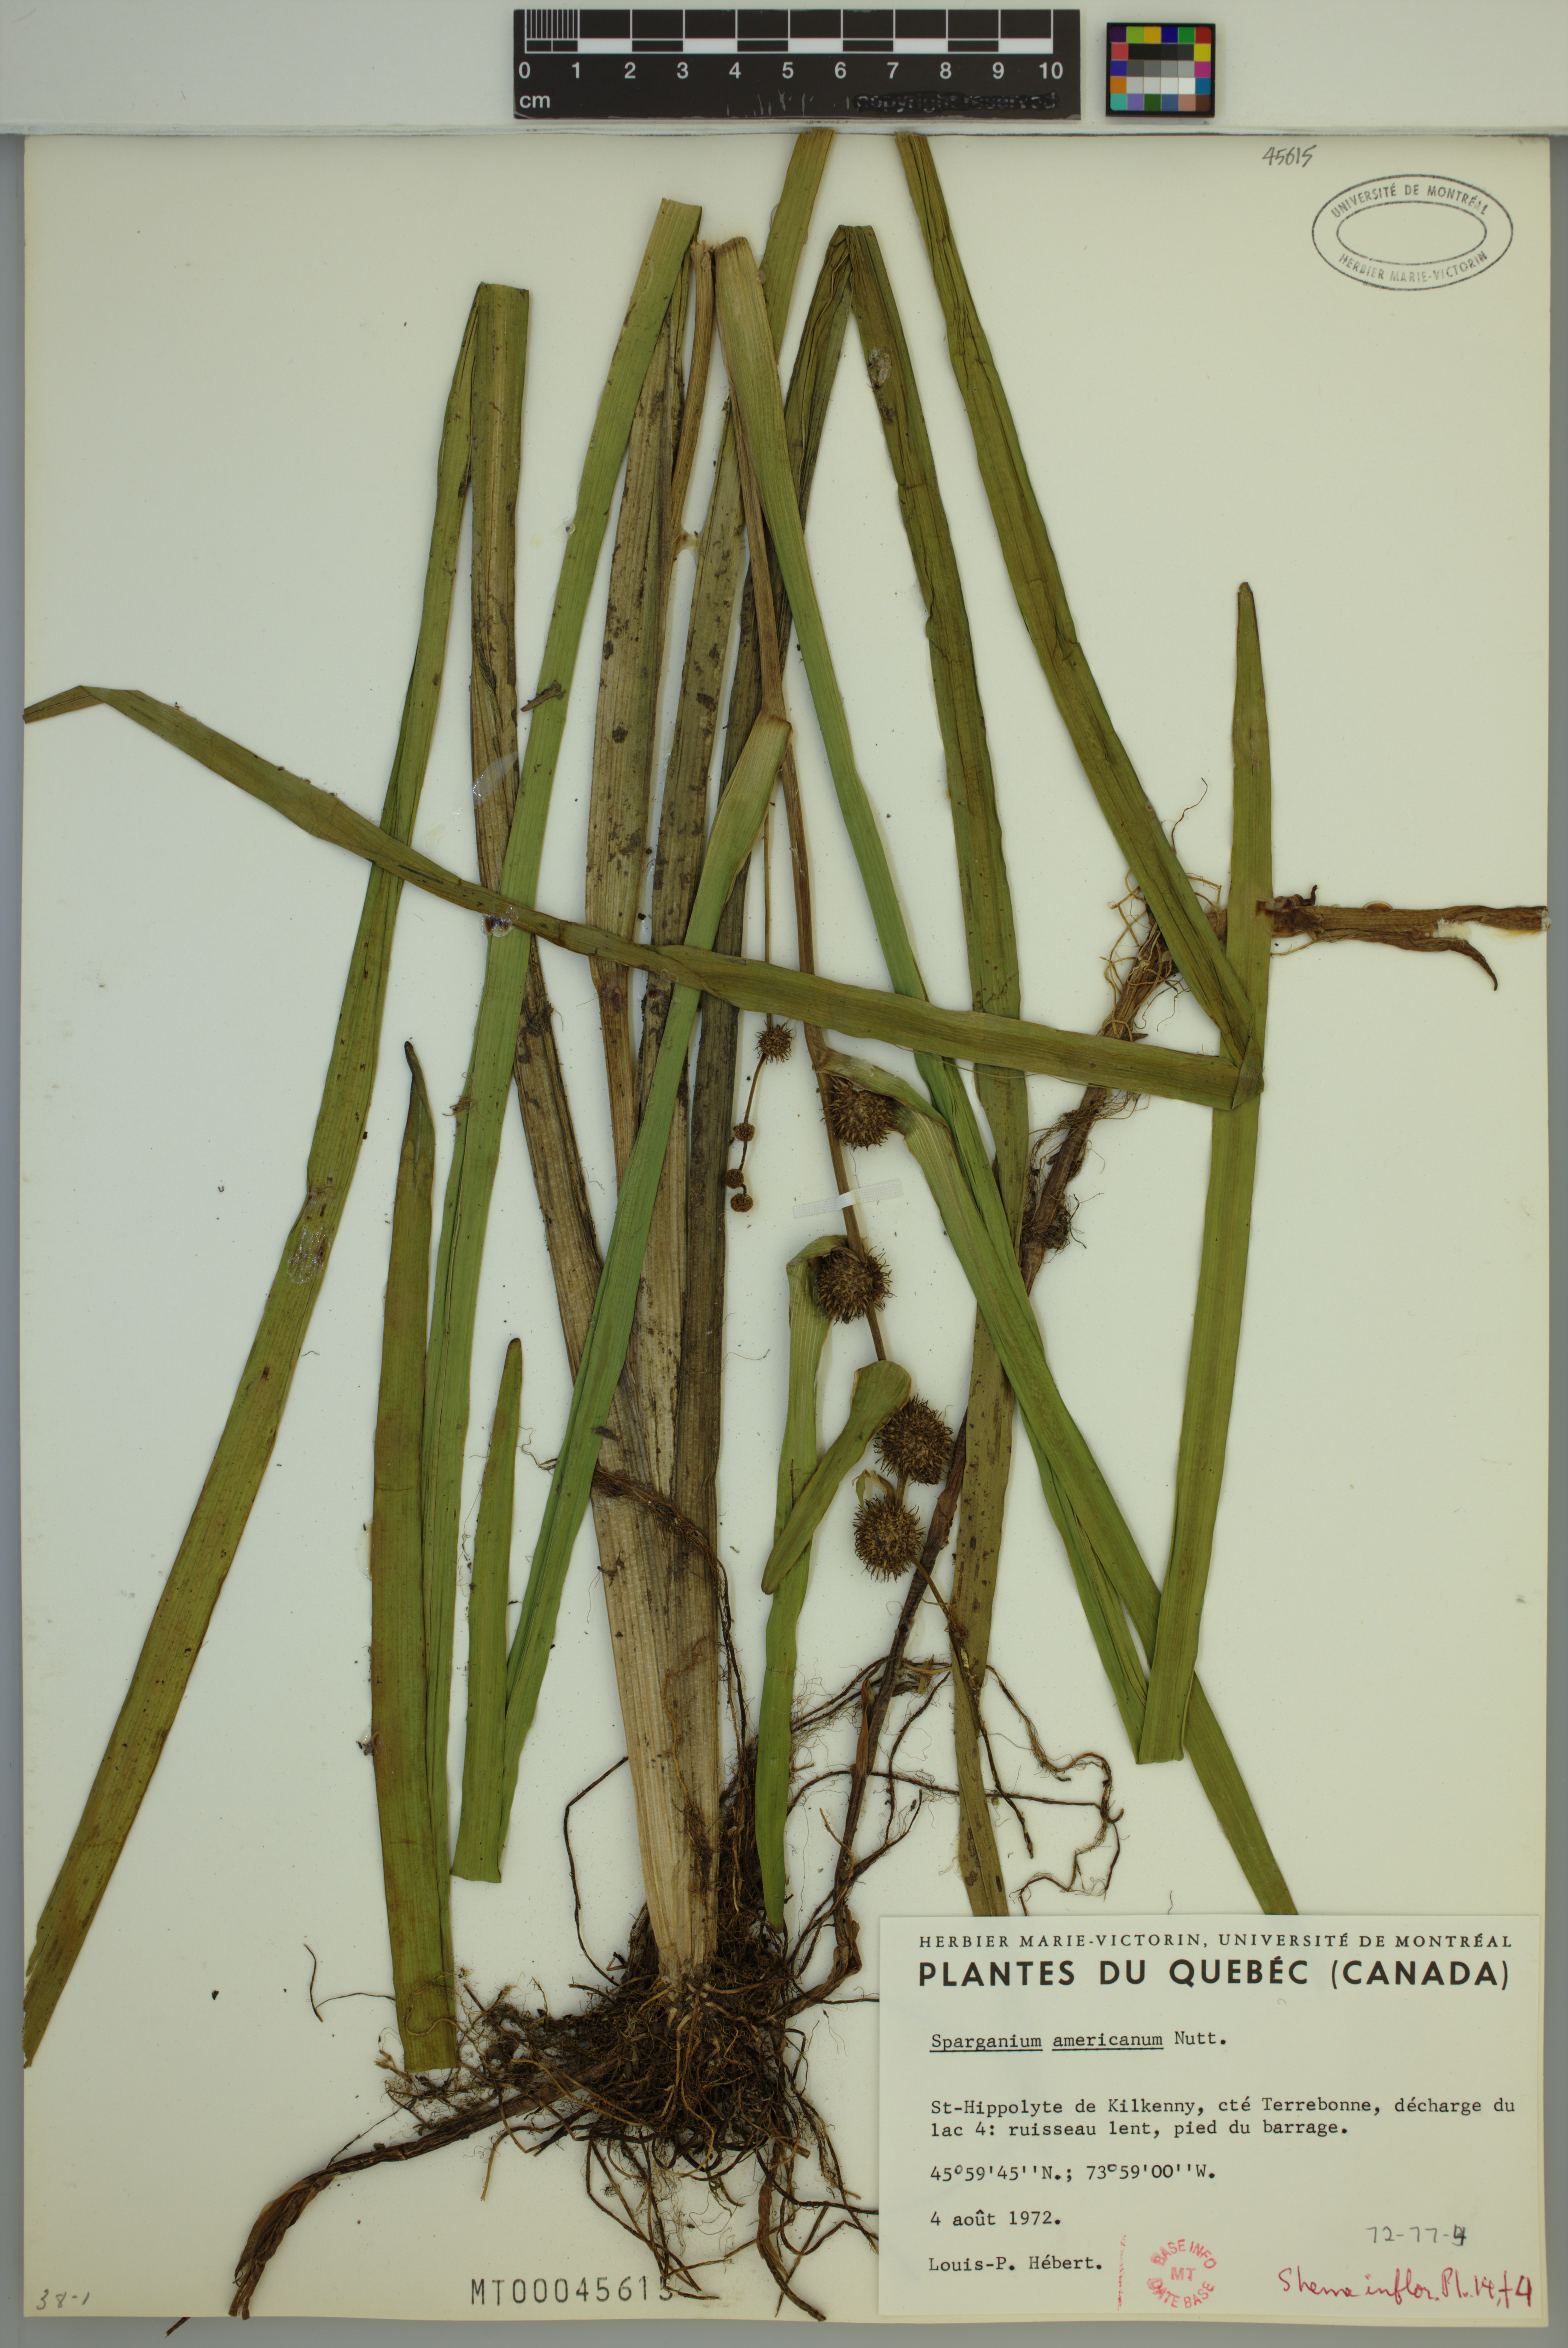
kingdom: Plantae
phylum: Tracheophyta
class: Liliopsida
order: Poales
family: Typhaceae
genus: Sparganium
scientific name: Sparganium americanum
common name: American burreed
